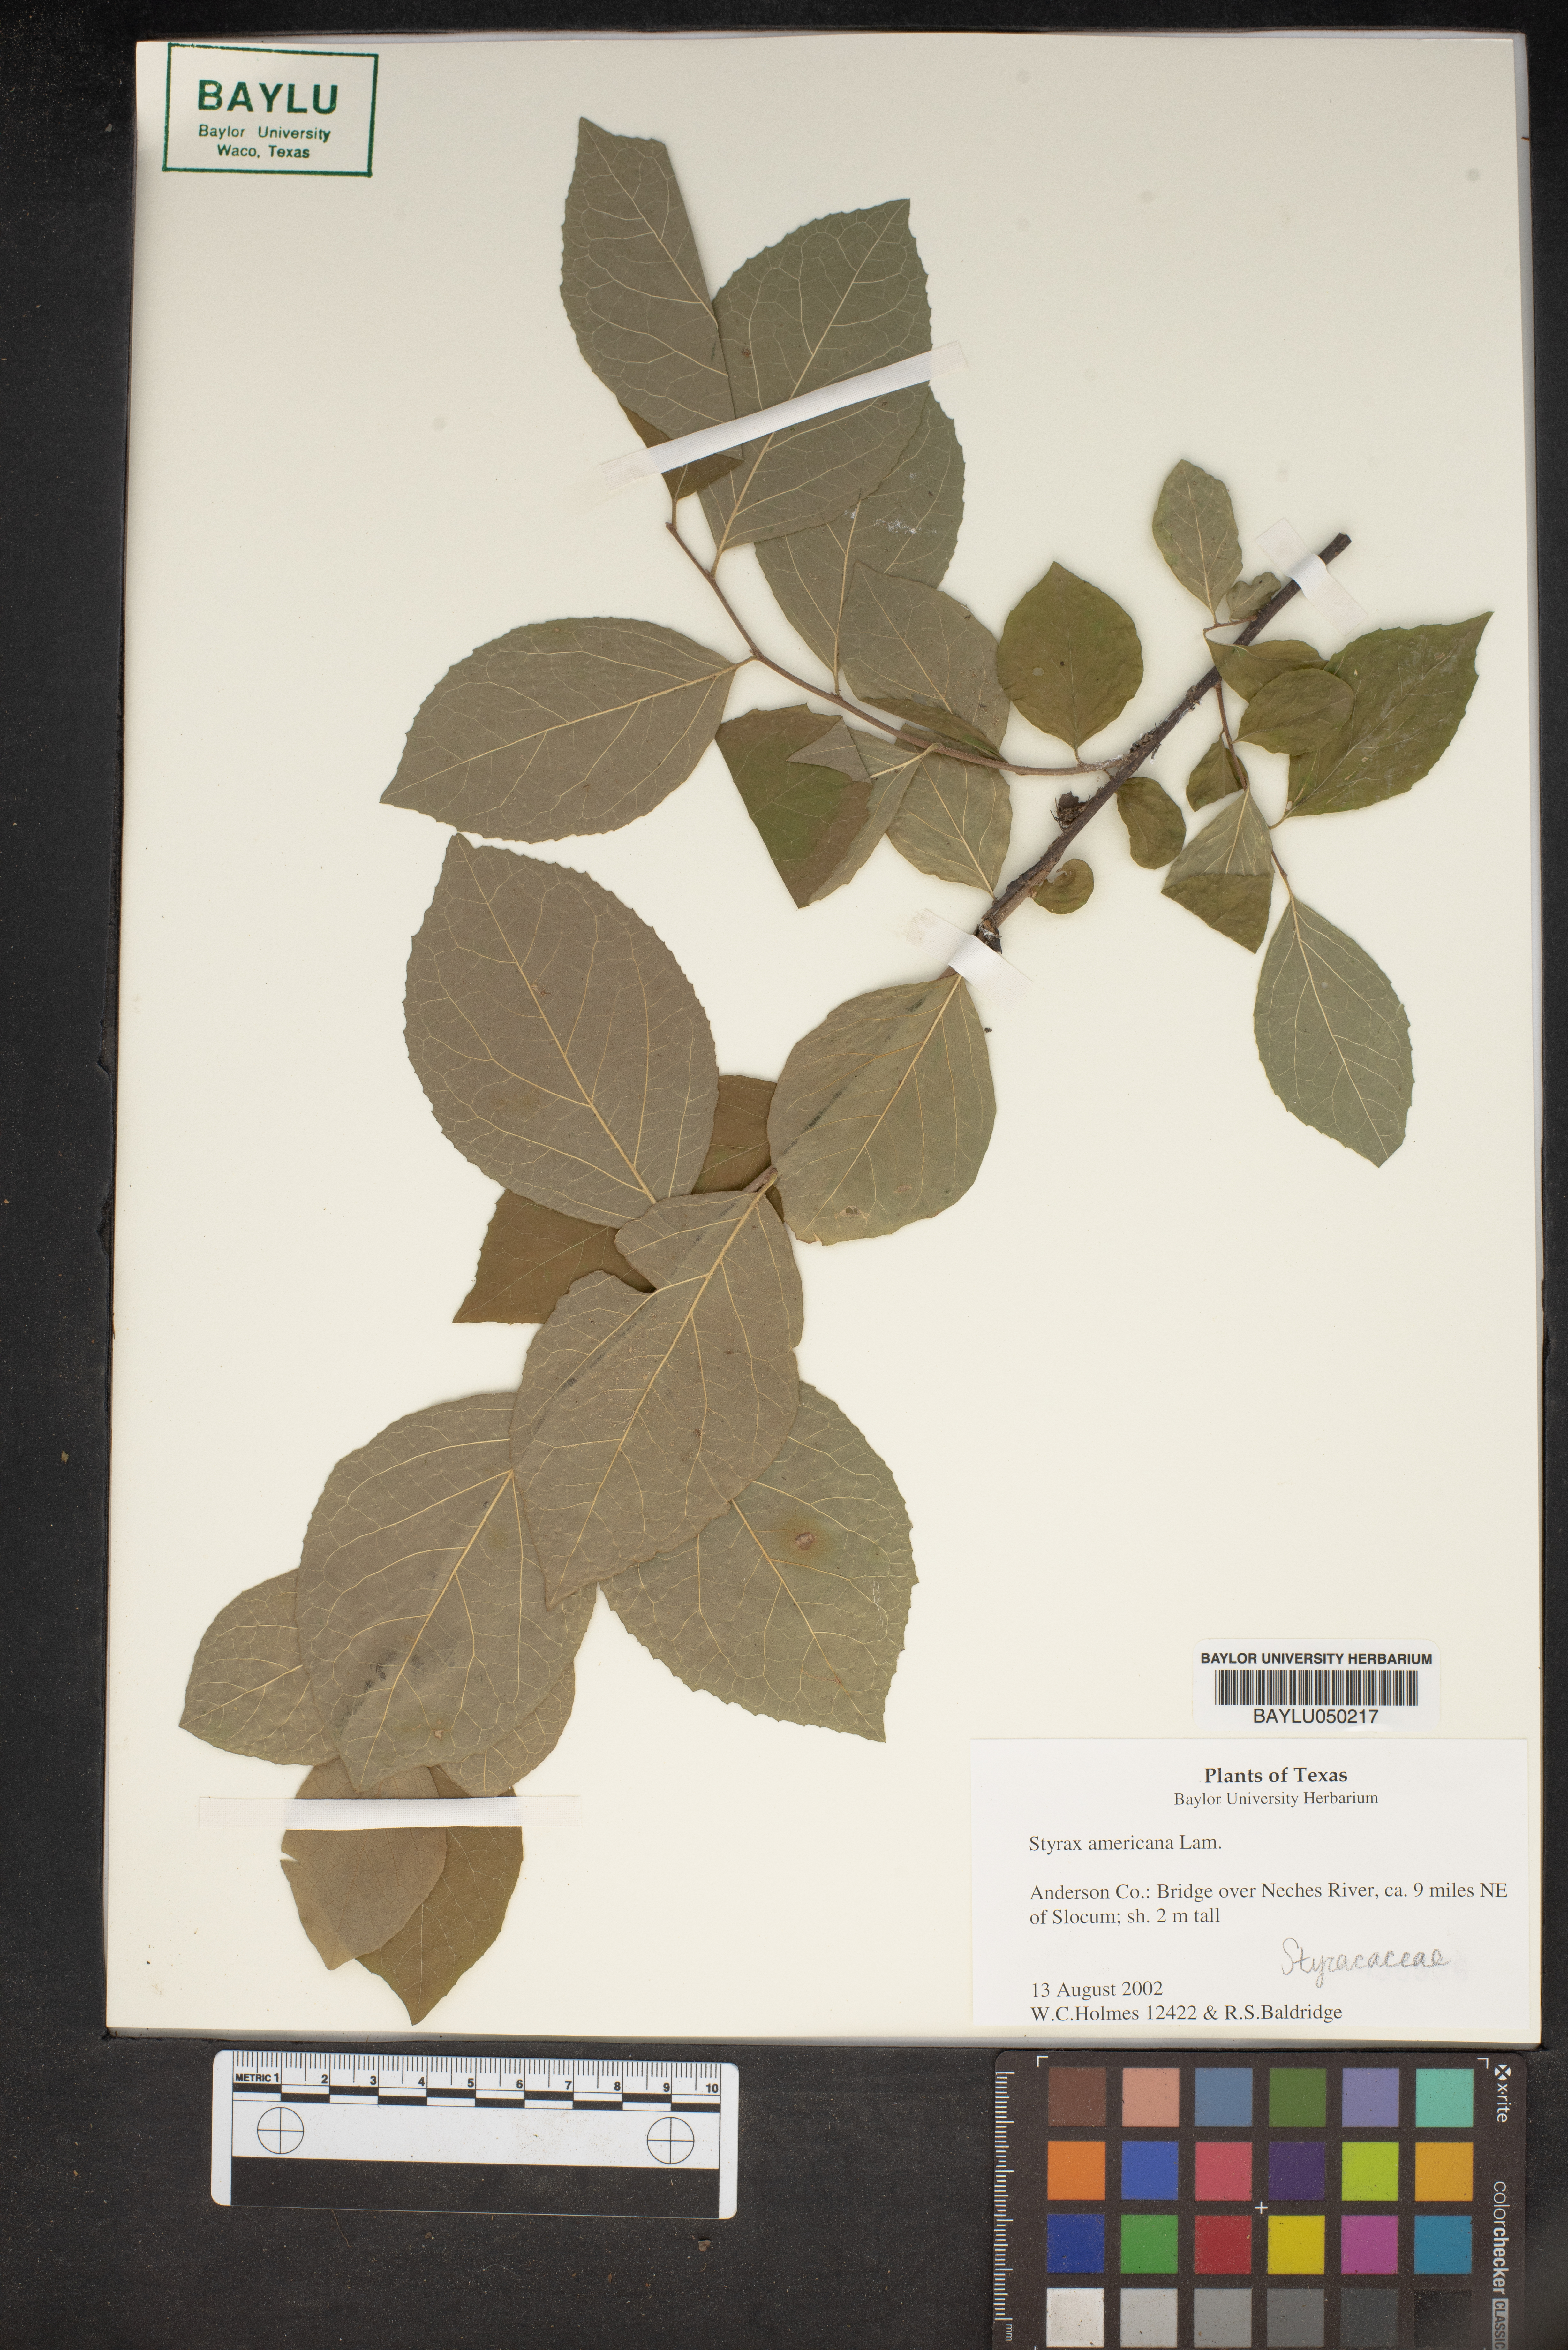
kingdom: Plantae
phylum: Tracheophyta
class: Magnoliopsida
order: Ericales
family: Styracaceae
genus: Styrax
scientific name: Styrax americanus
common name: American snowbell
